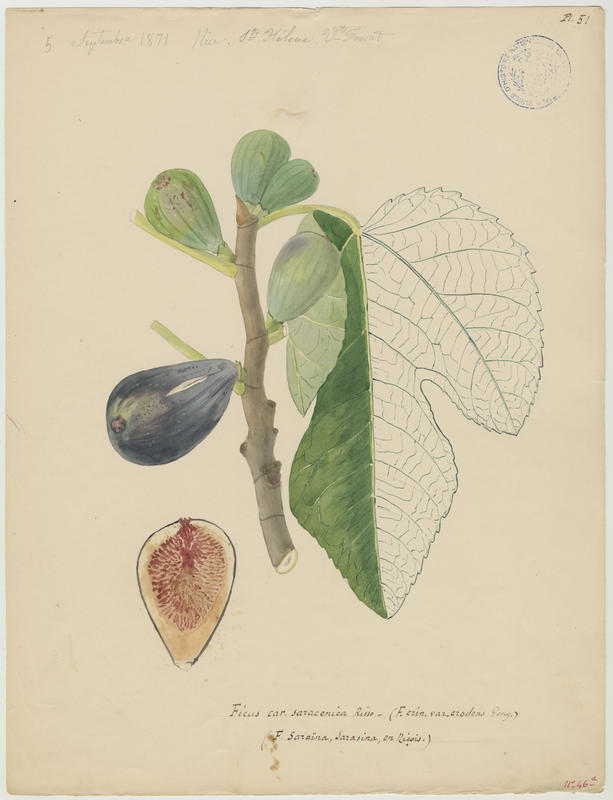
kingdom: Plantae
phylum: Tracheophyta
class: Magnoliopsida
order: Rosales
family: Moraceae
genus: Ficus
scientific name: Ficus carica
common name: Fig
